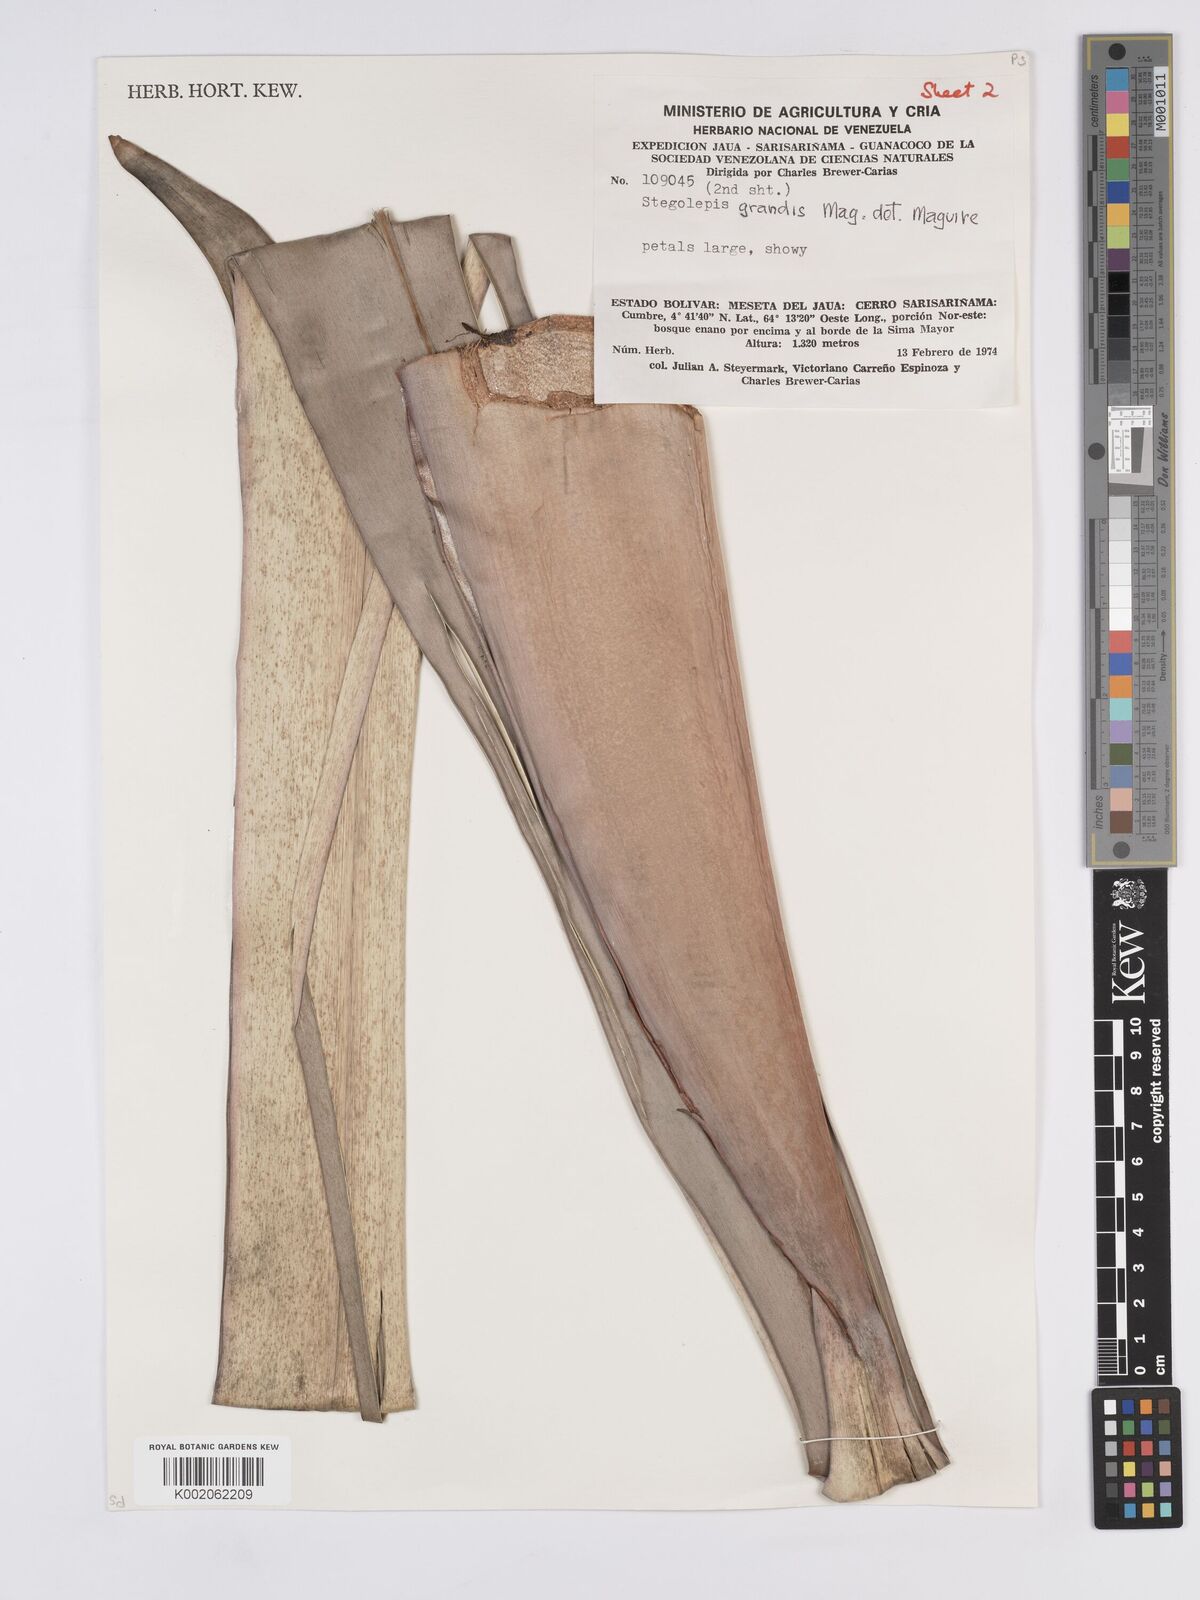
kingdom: Plantae
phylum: Tracheophyta
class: Liliopsida
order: Poales
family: Rapateaceae
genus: Stegolepis
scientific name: Stegolepis grandis
